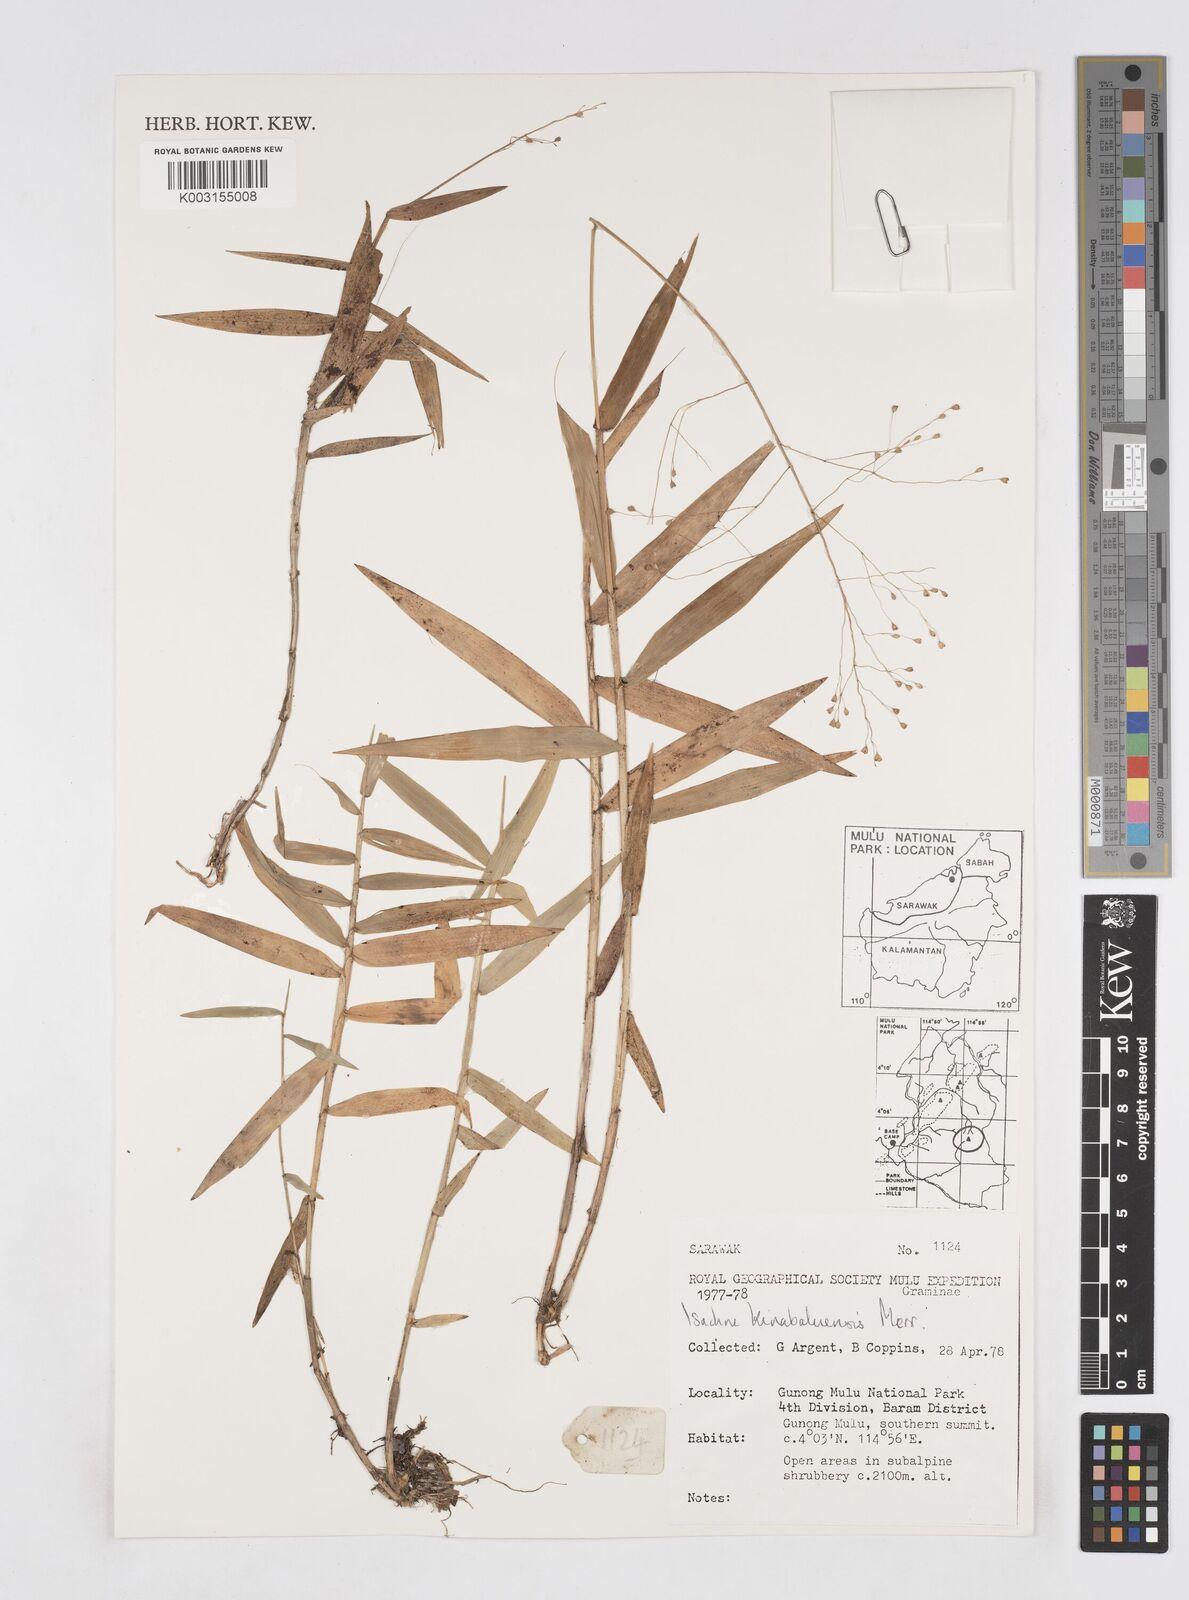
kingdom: Plantae
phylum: Tracheophyta
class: Liliopsida
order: Poales
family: Poaceae
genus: Isachne
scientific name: Isachne kinabaluensis
